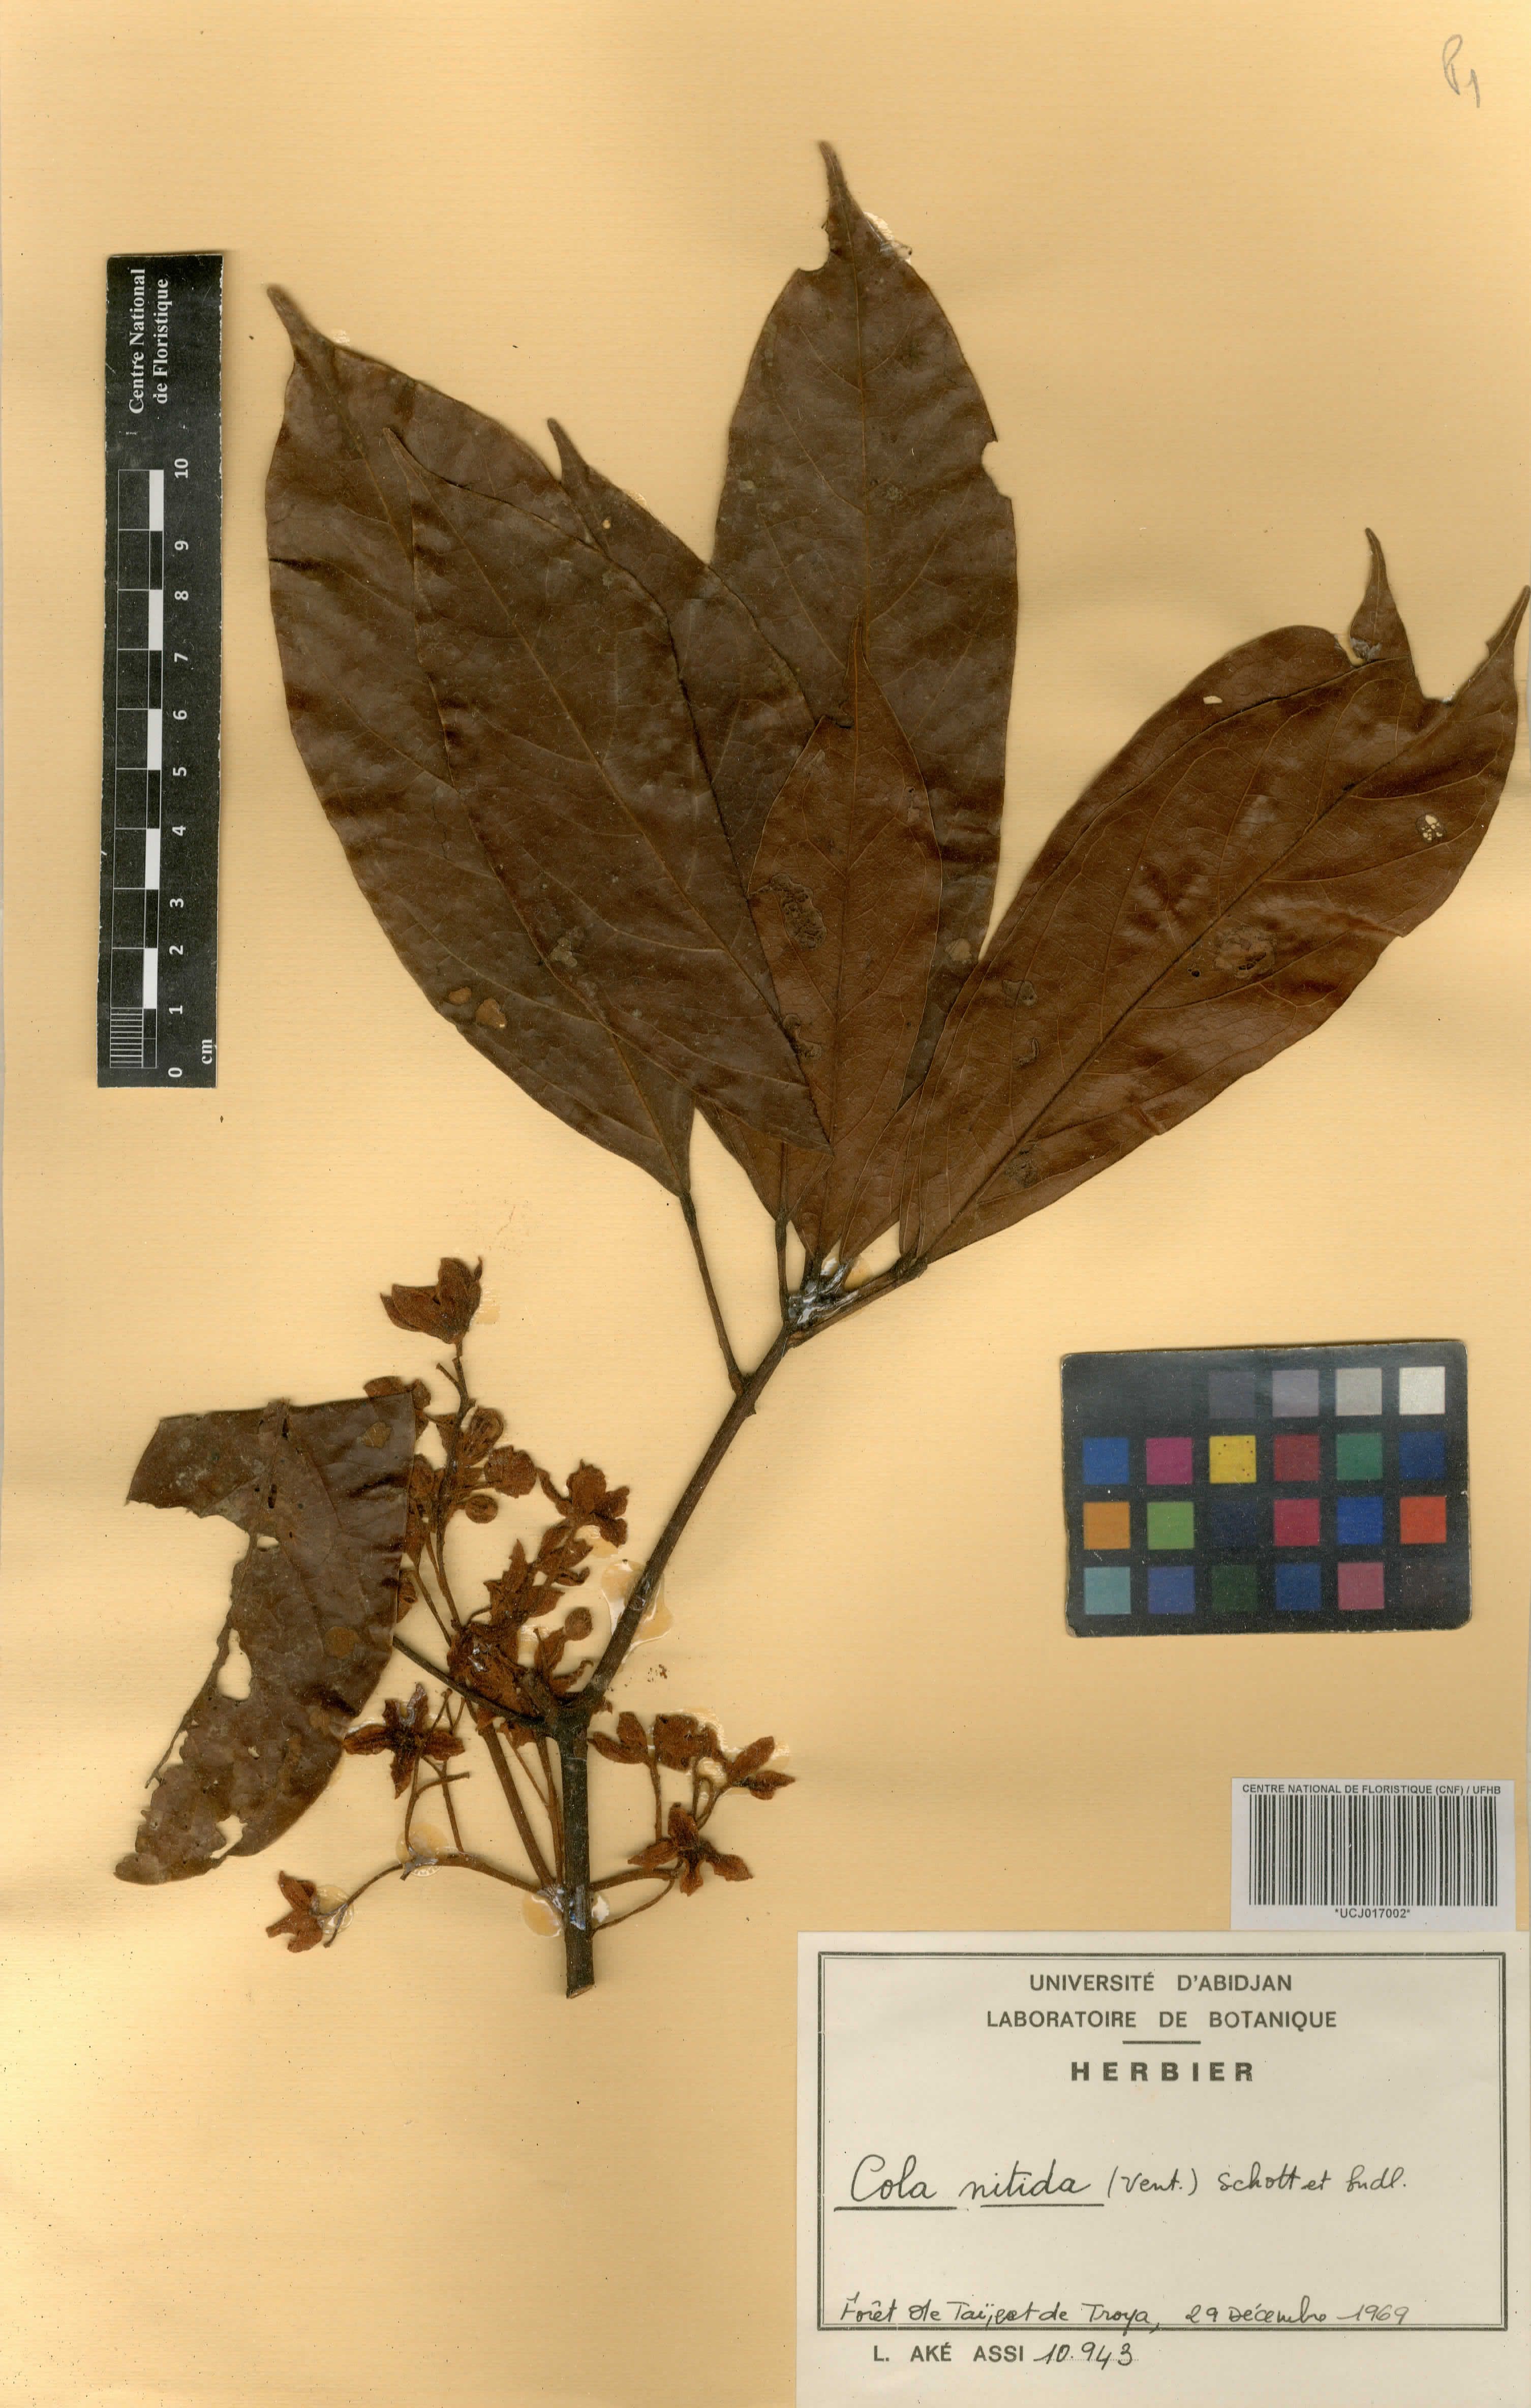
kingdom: Plantae
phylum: Tracheophyta
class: Magnoliopsida
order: Malvales
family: Malvaceae
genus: Cola
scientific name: Cola nitida
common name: Kola nut
